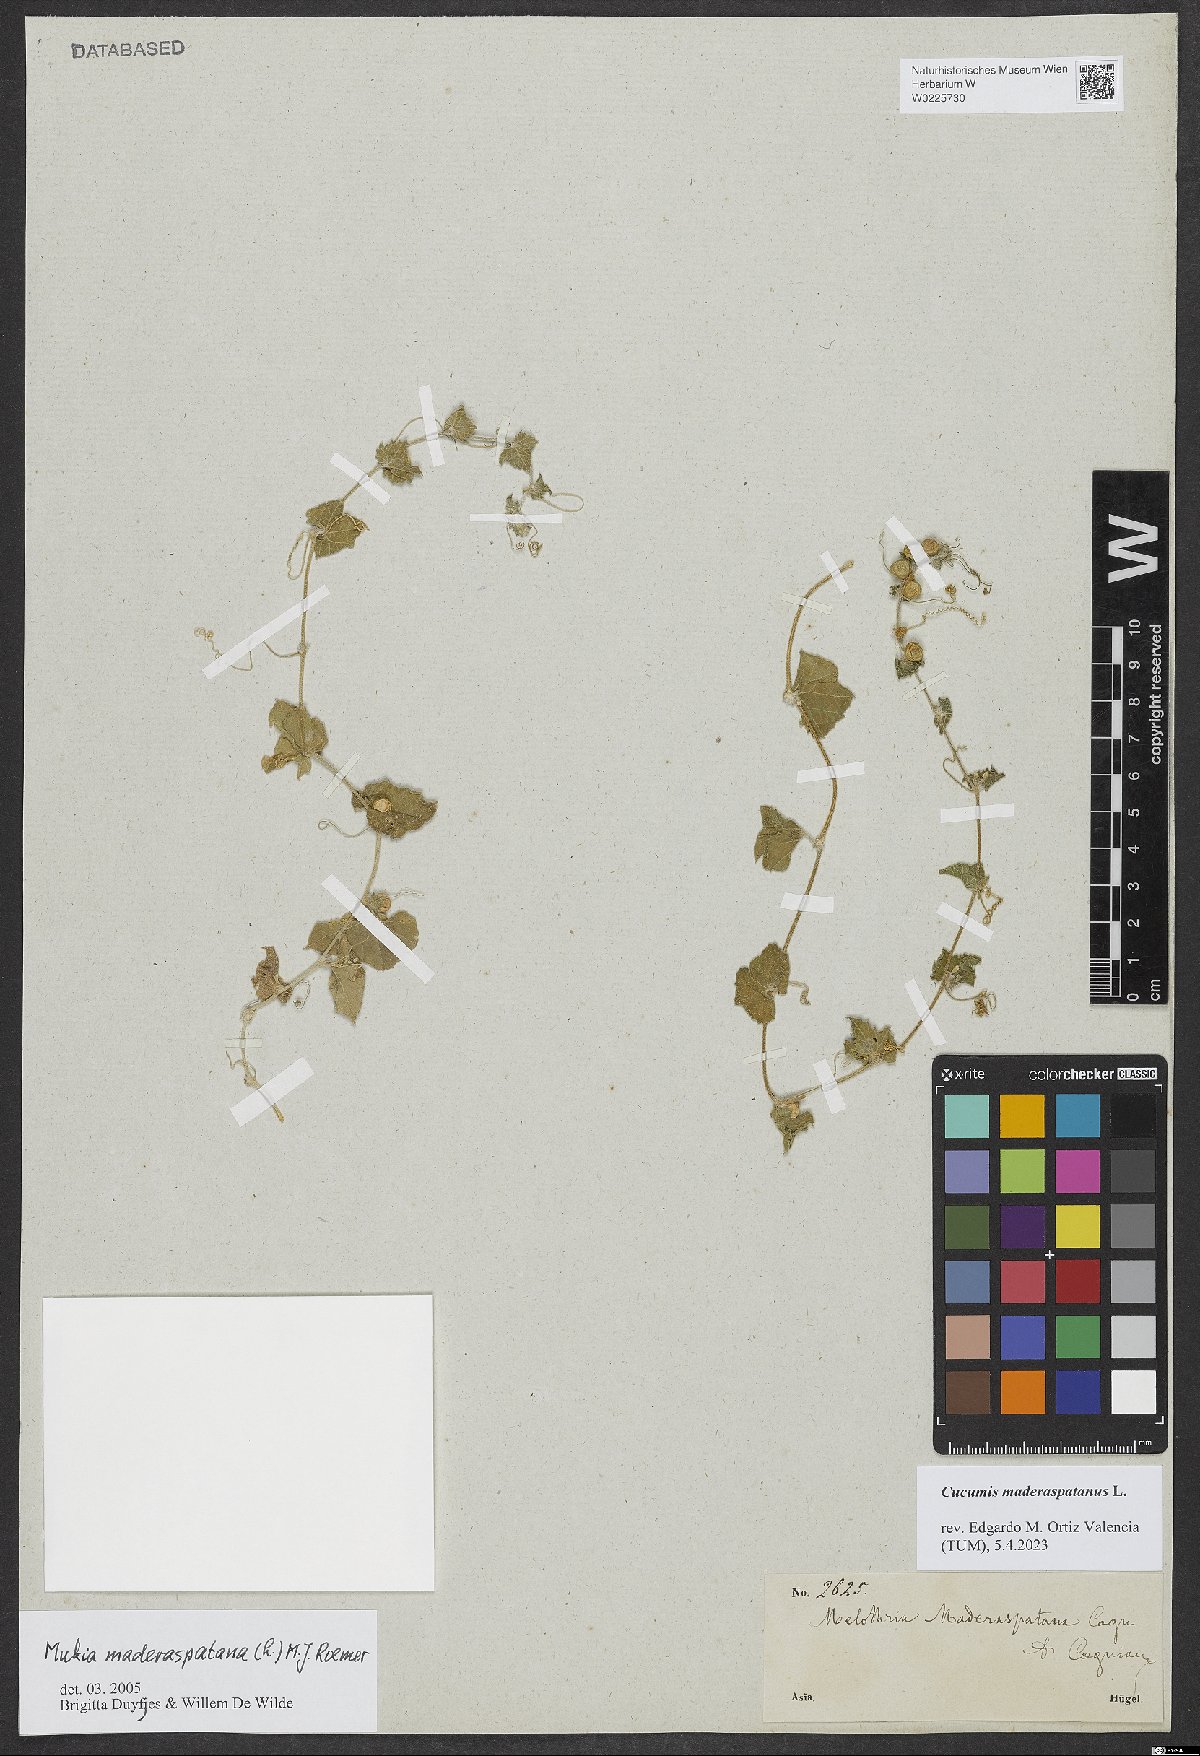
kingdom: Plantae
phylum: Tracheophyta
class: Magnoliopsida
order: Cucurbitales
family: Cucurbitaceae
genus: Cucumis
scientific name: Cucumis maderaspatanus
